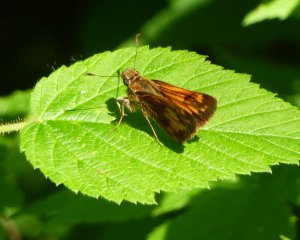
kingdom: Animalia
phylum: Arthropoda
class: Insecta
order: Lepidoptera
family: Hesperiidae
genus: Lon
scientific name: Lon hobomok
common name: Hobomok Skipper
